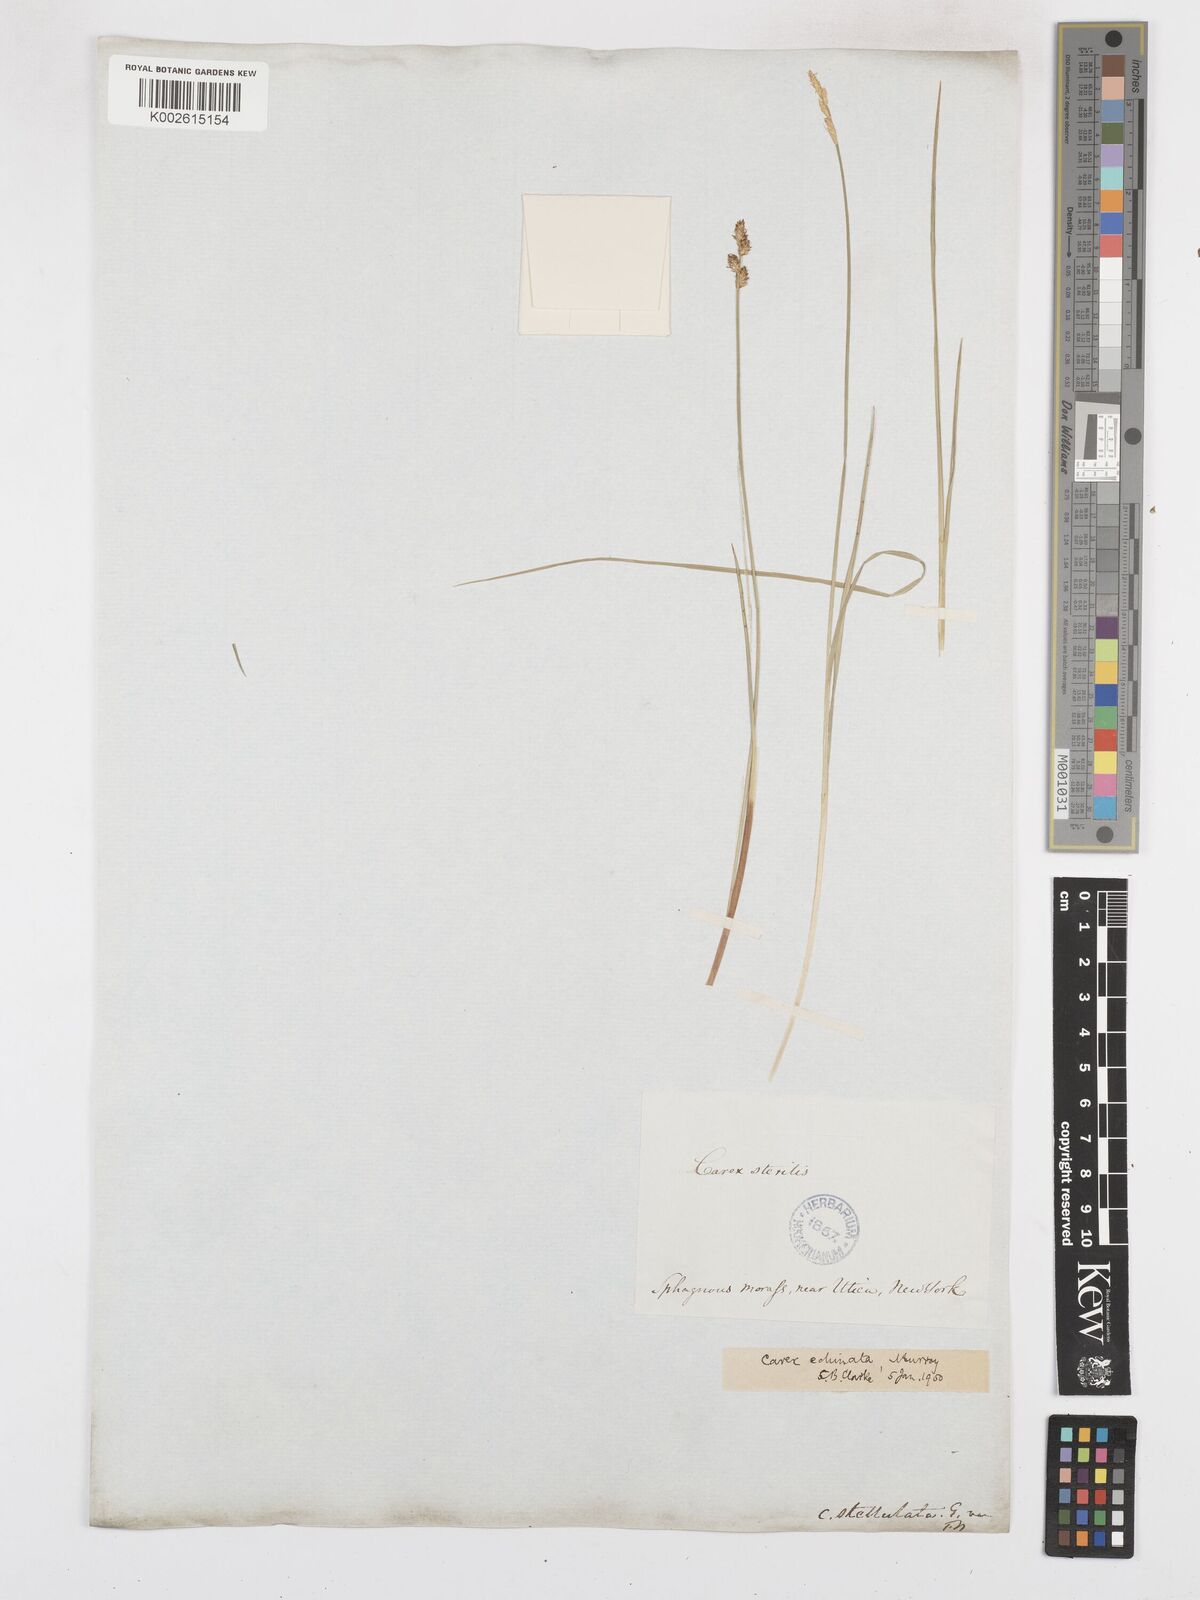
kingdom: Plantae
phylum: Tracheophyta
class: Liliopsida
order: Poales
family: Cyperaceae
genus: Carex
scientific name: Carex echinata
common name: Star sedge
